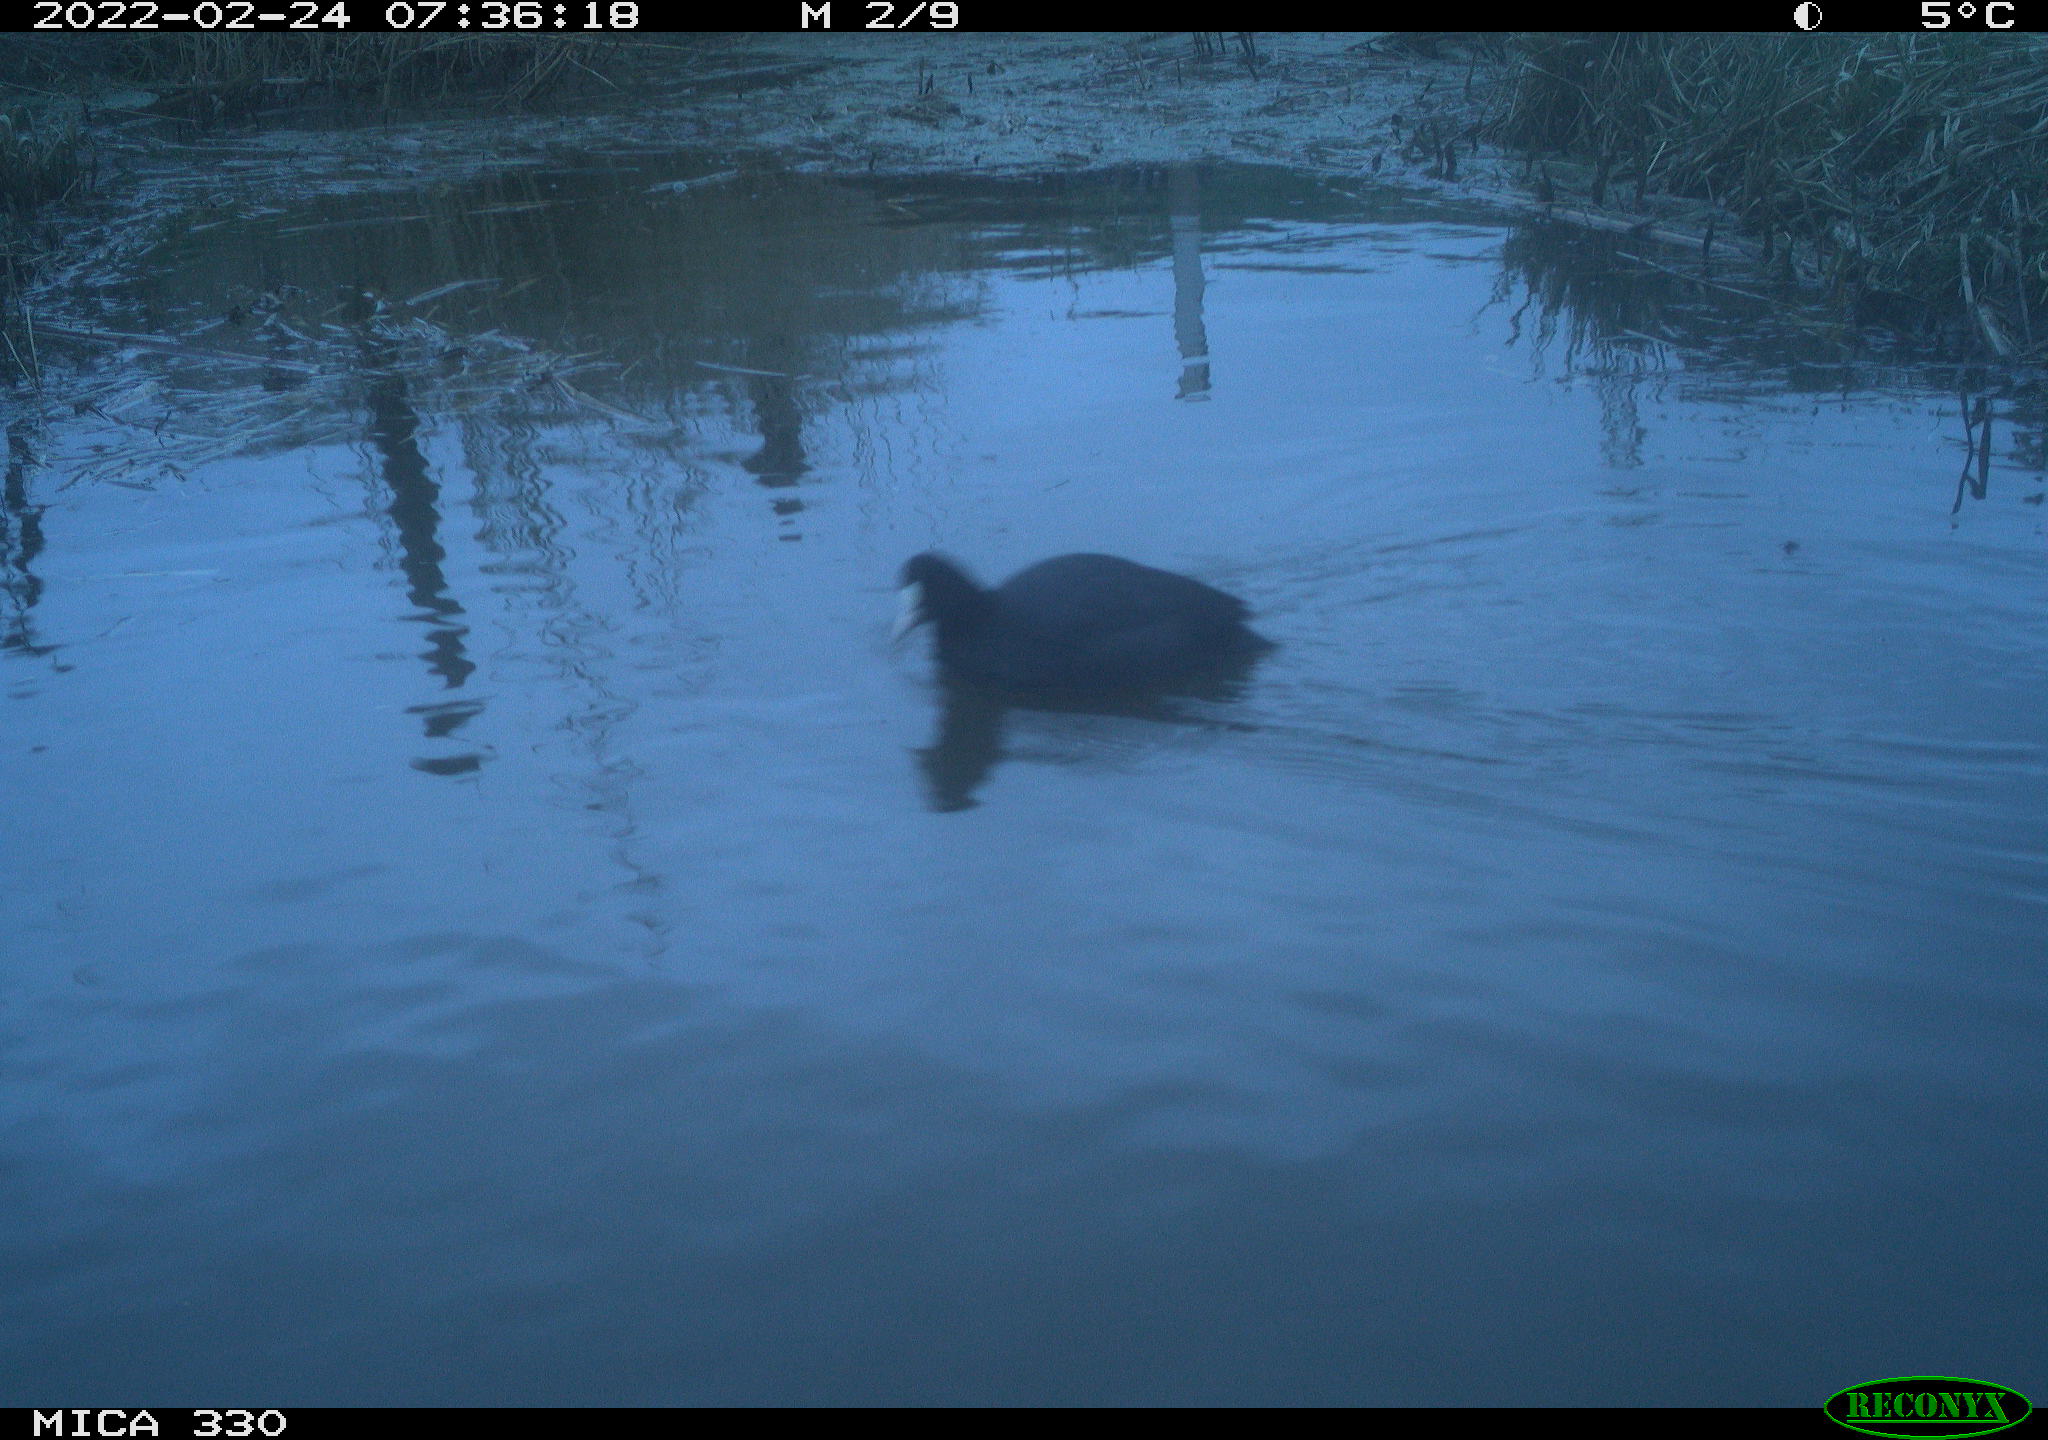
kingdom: Animalia
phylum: Chordata
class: Aves
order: Gruiformes
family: Rallidae
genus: Gallinula
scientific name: Gallinula chloropus
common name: Common moorhen
